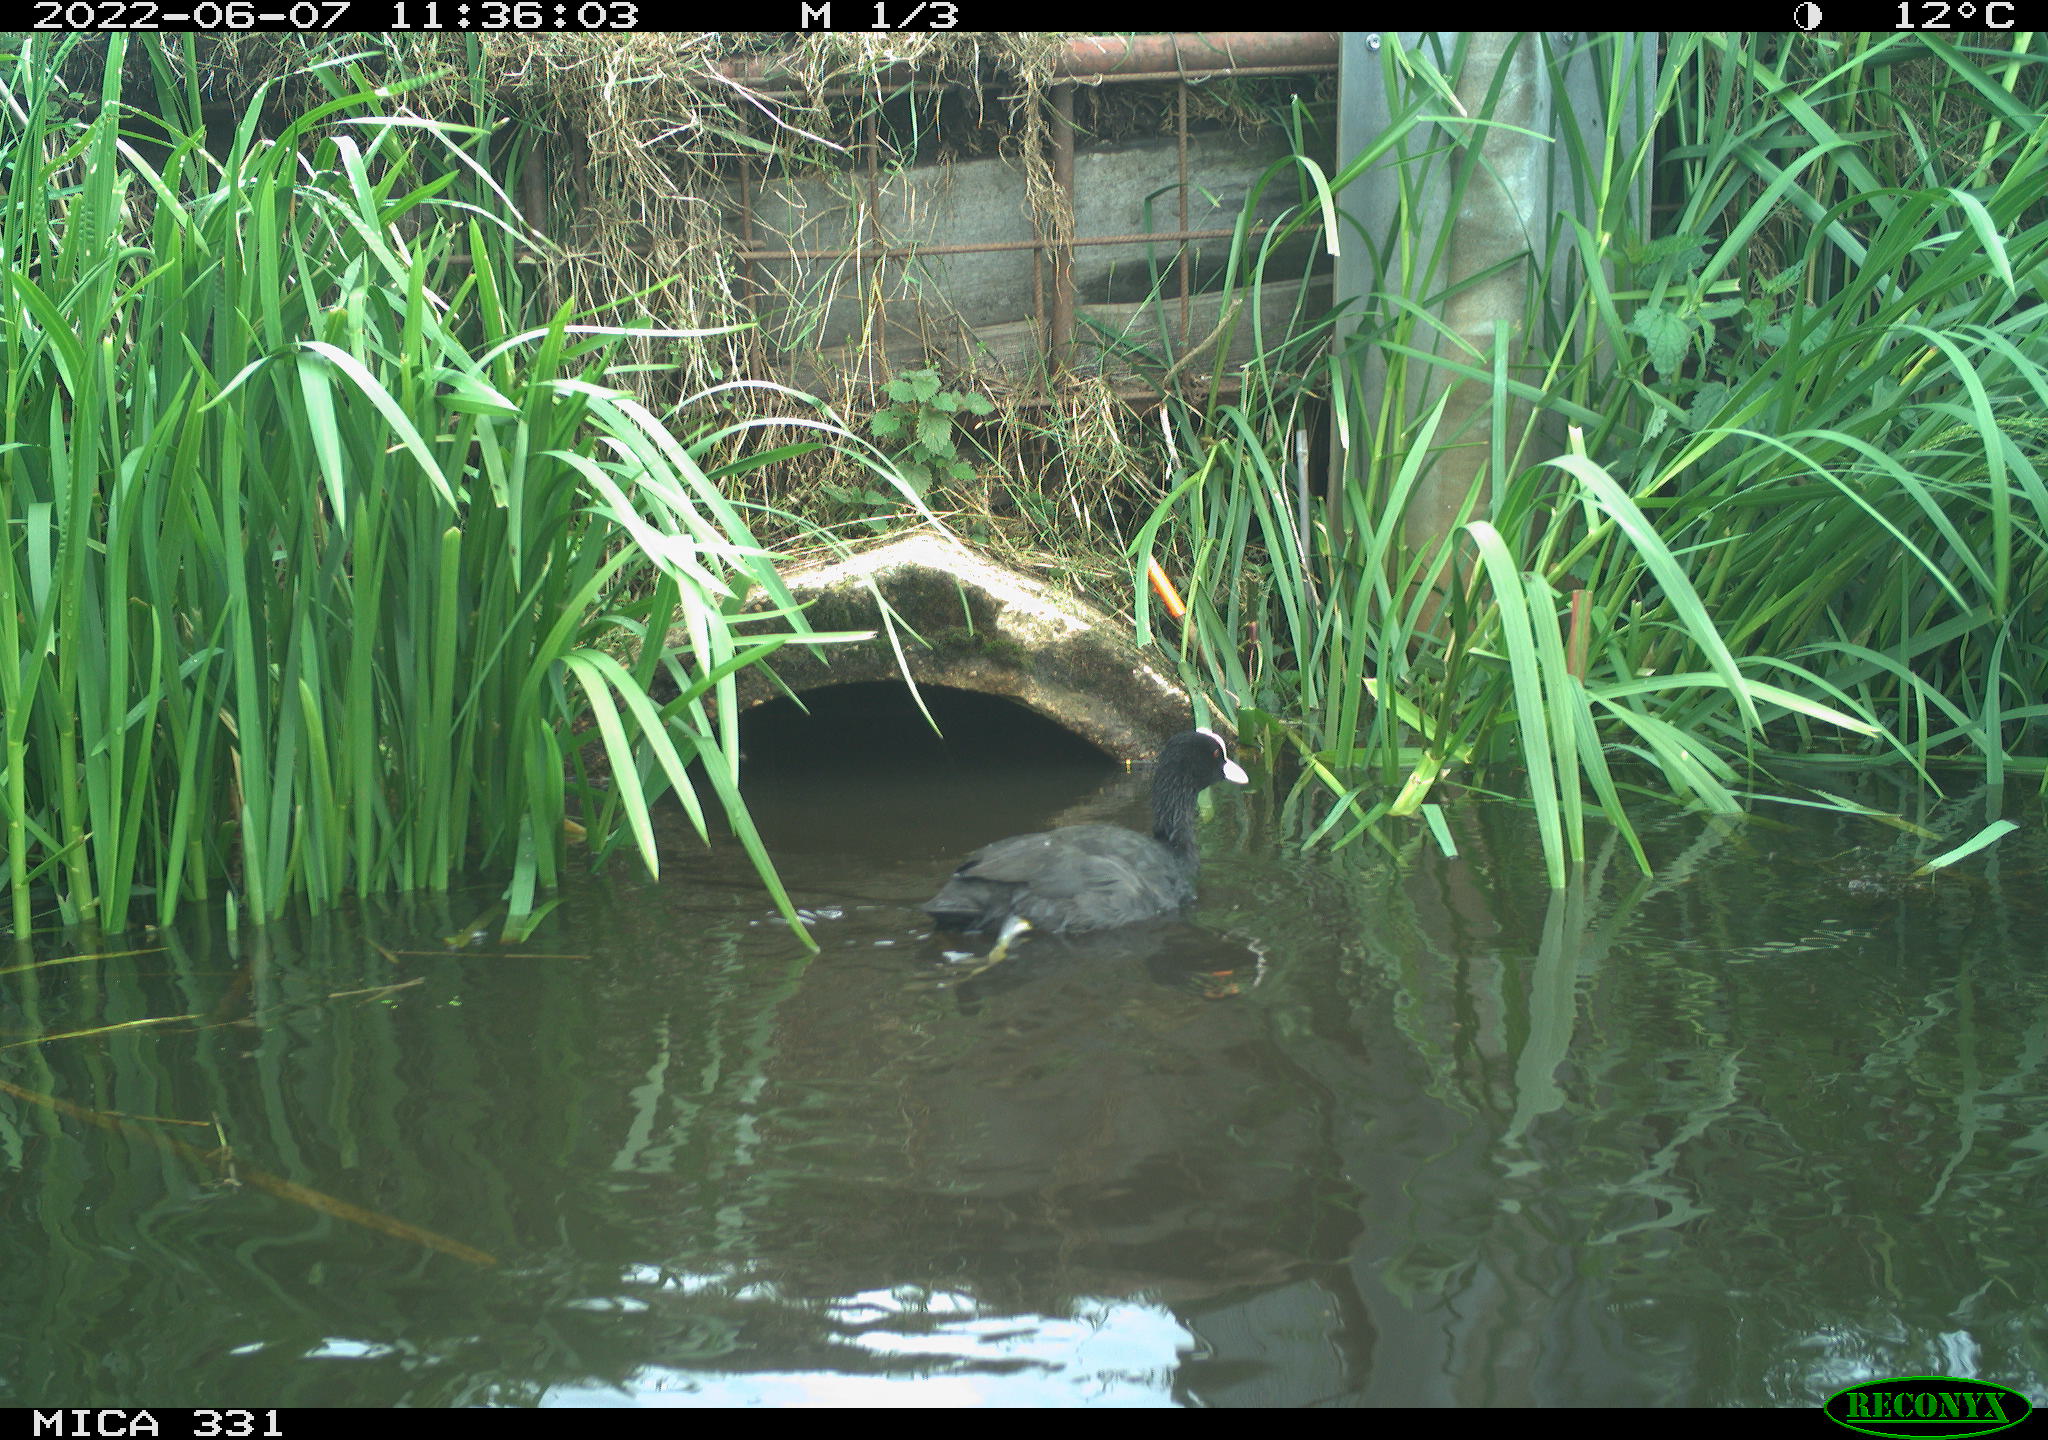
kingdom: Animalia
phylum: Chordata
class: Aves
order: Gruiformes
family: Rallidae
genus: Fulica
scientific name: Fulica atra
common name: Eurasian coot
